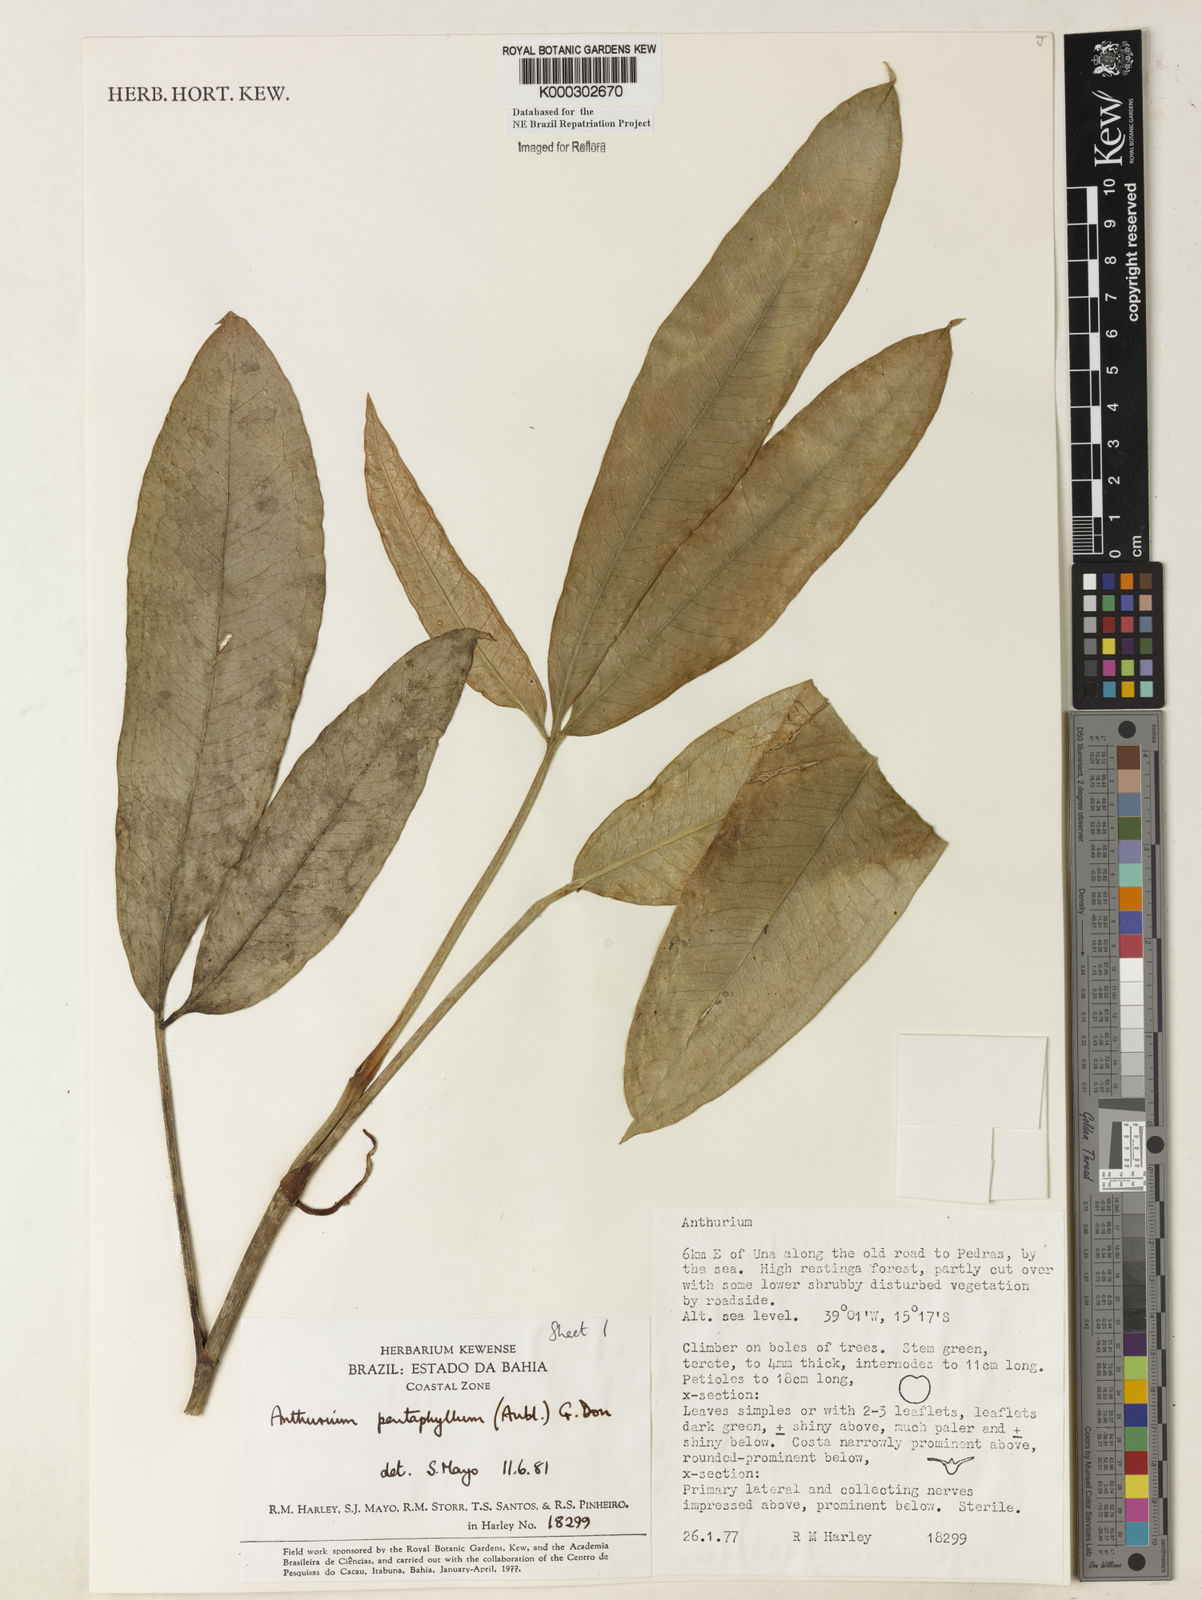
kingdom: Plantae
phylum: Tracheophyta
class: Liliopsida
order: Alismatales
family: Araceae
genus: Anthurium
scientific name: Anthurium pentaphyllum
